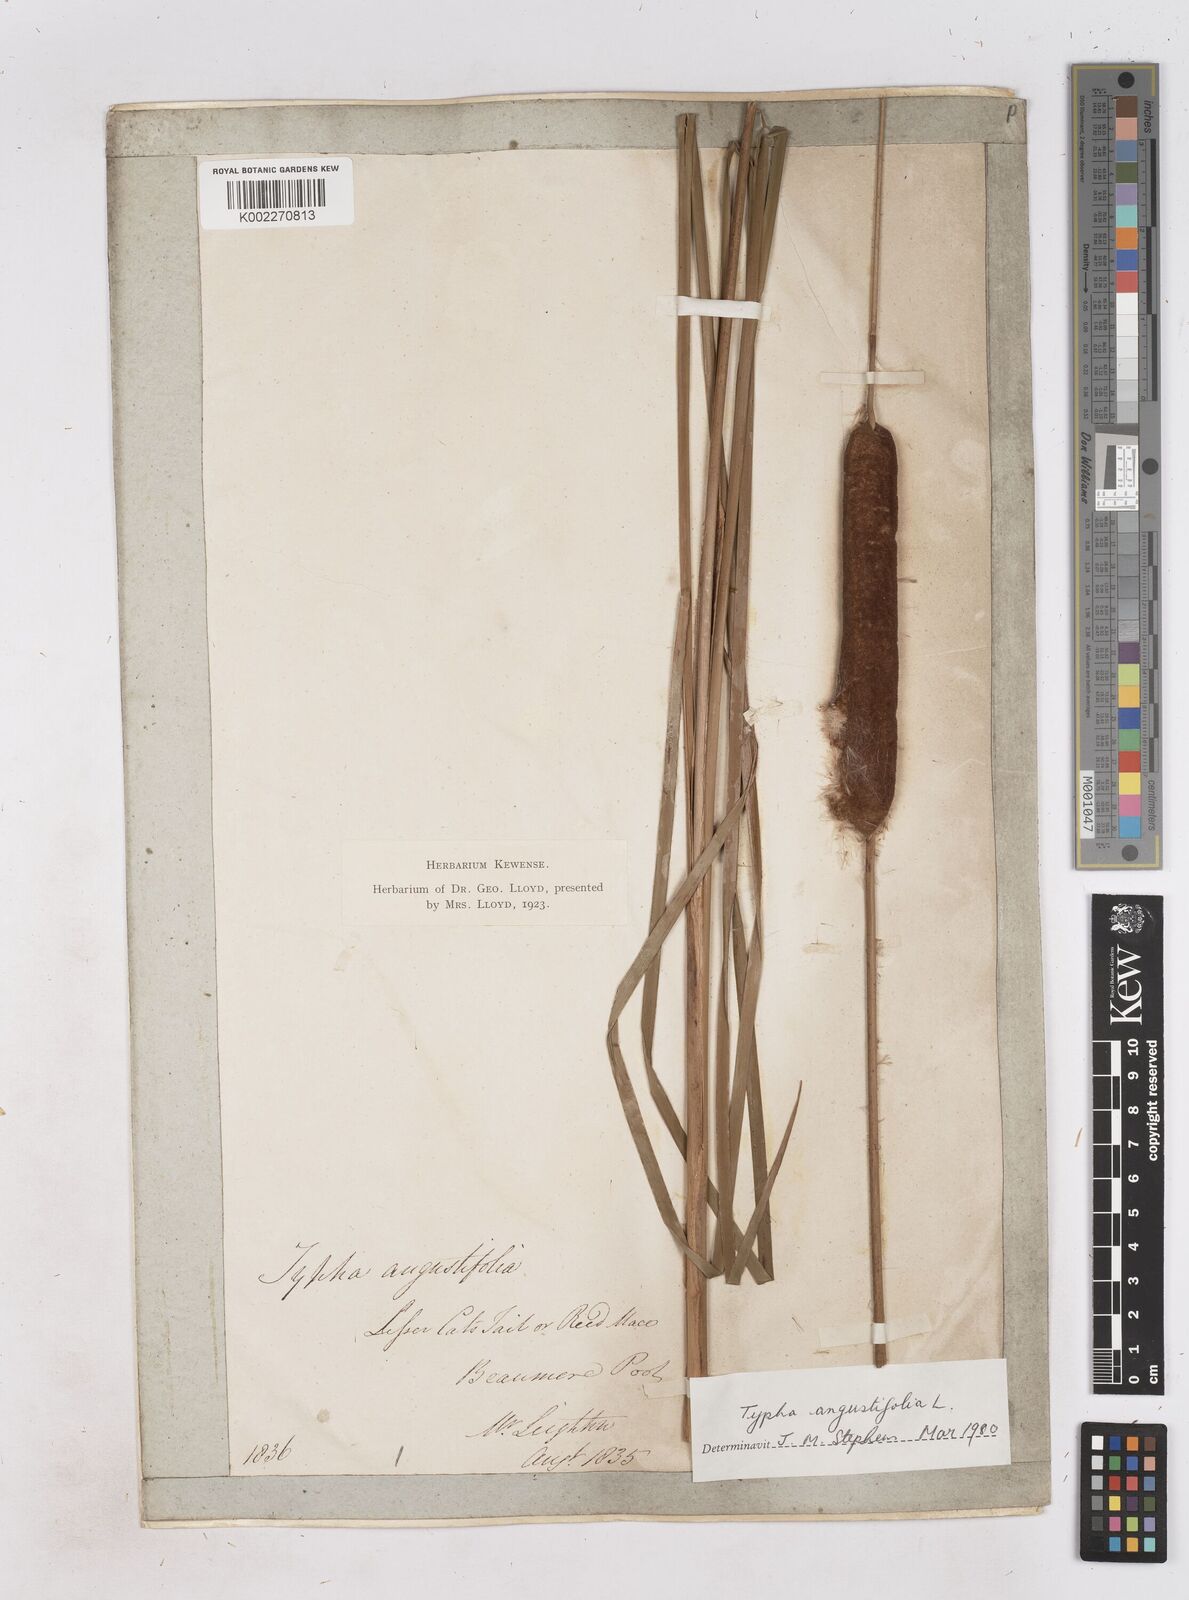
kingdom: Plantae
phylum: Tracheophyta
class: Liliopsida
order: Poales
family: Typhaceae
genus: Typha
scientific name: Typha angustifolia
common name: Lesser bulrush
